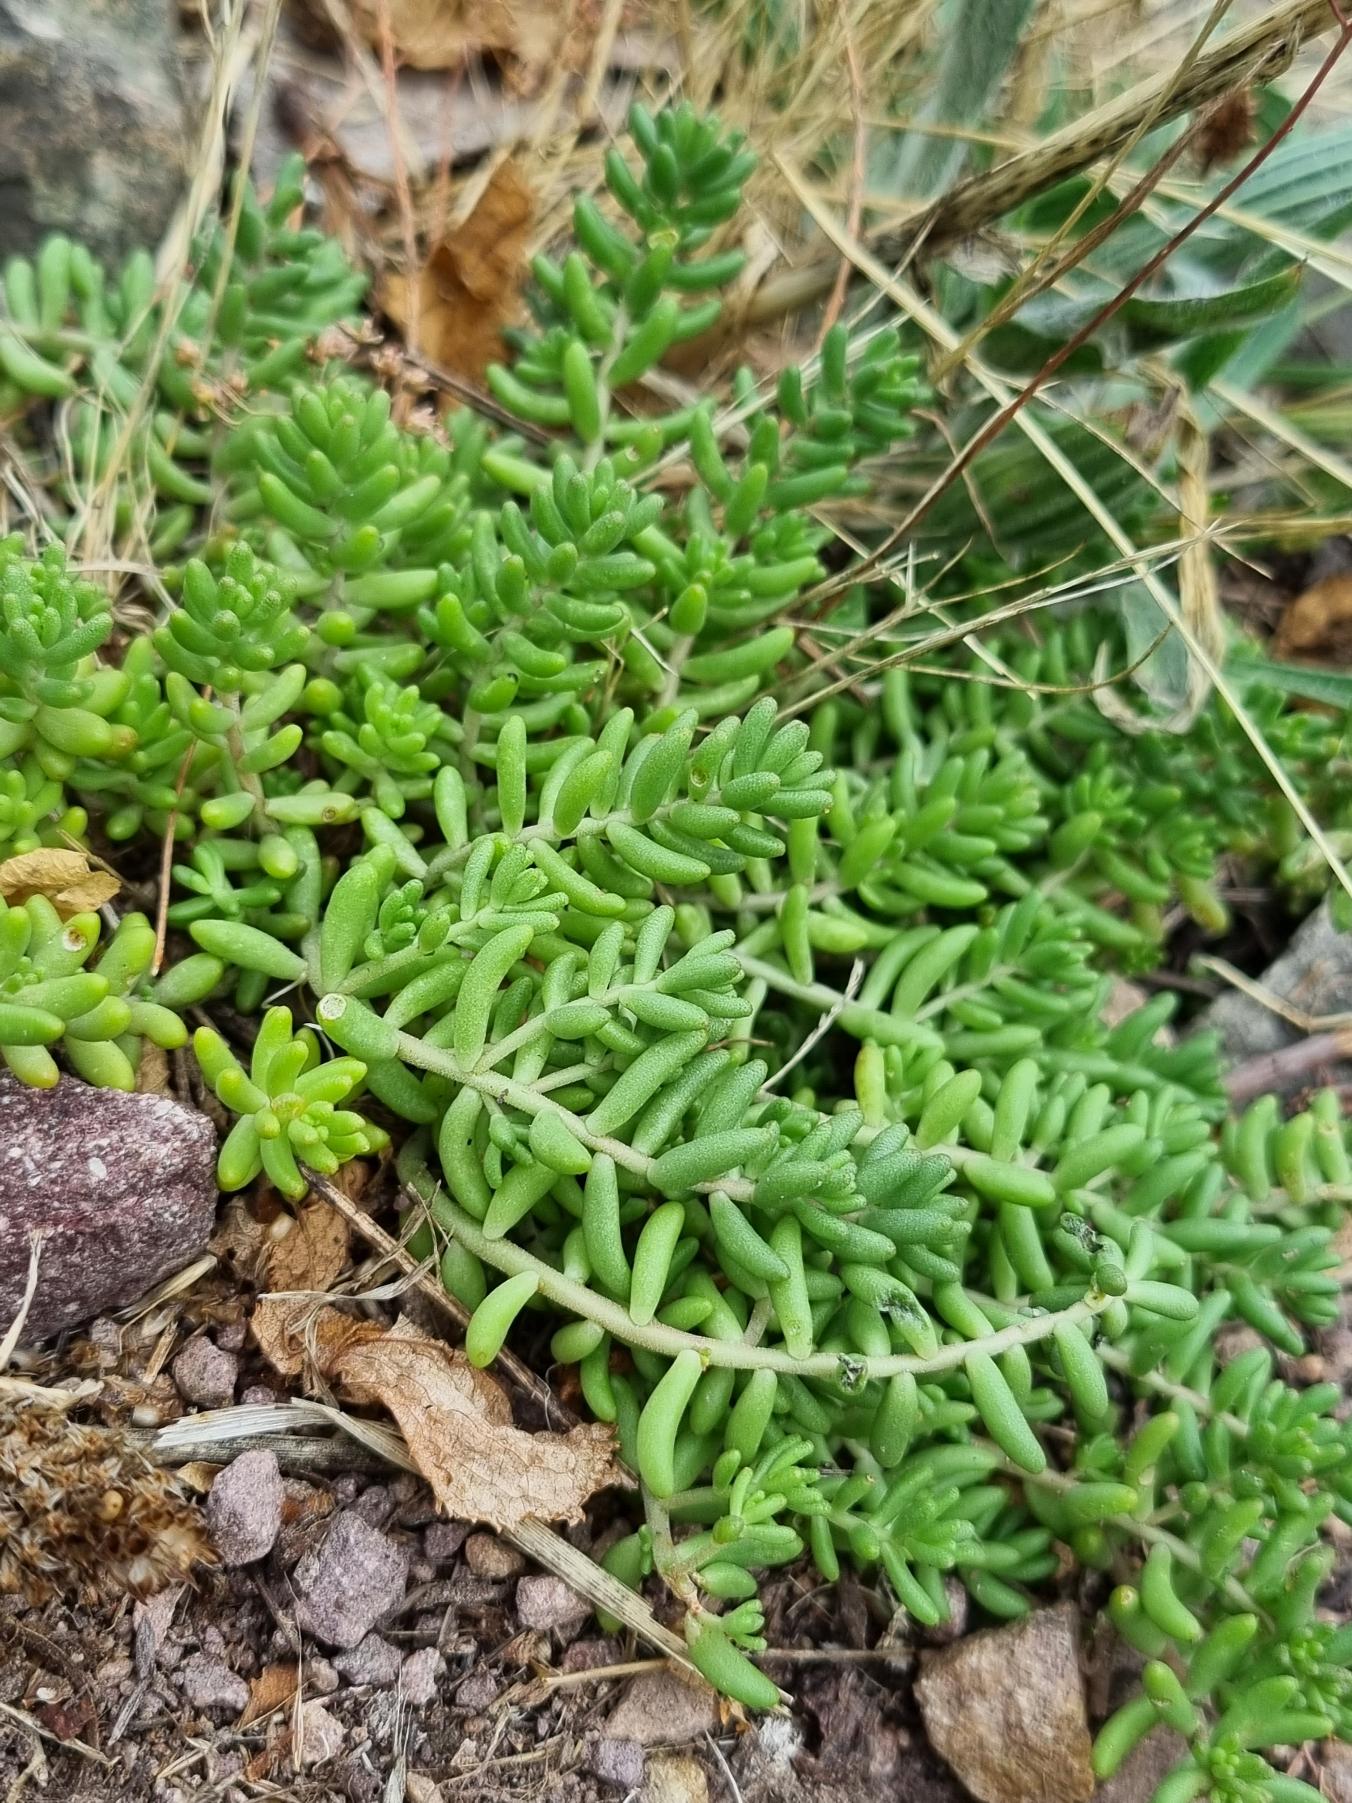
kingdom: Plantae
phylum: Tracheophyta
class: Magnoliopsida
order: Saxifragales
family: Crassulaceae
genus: Sedum
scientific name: Sedum album
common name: Hvid stenurt
